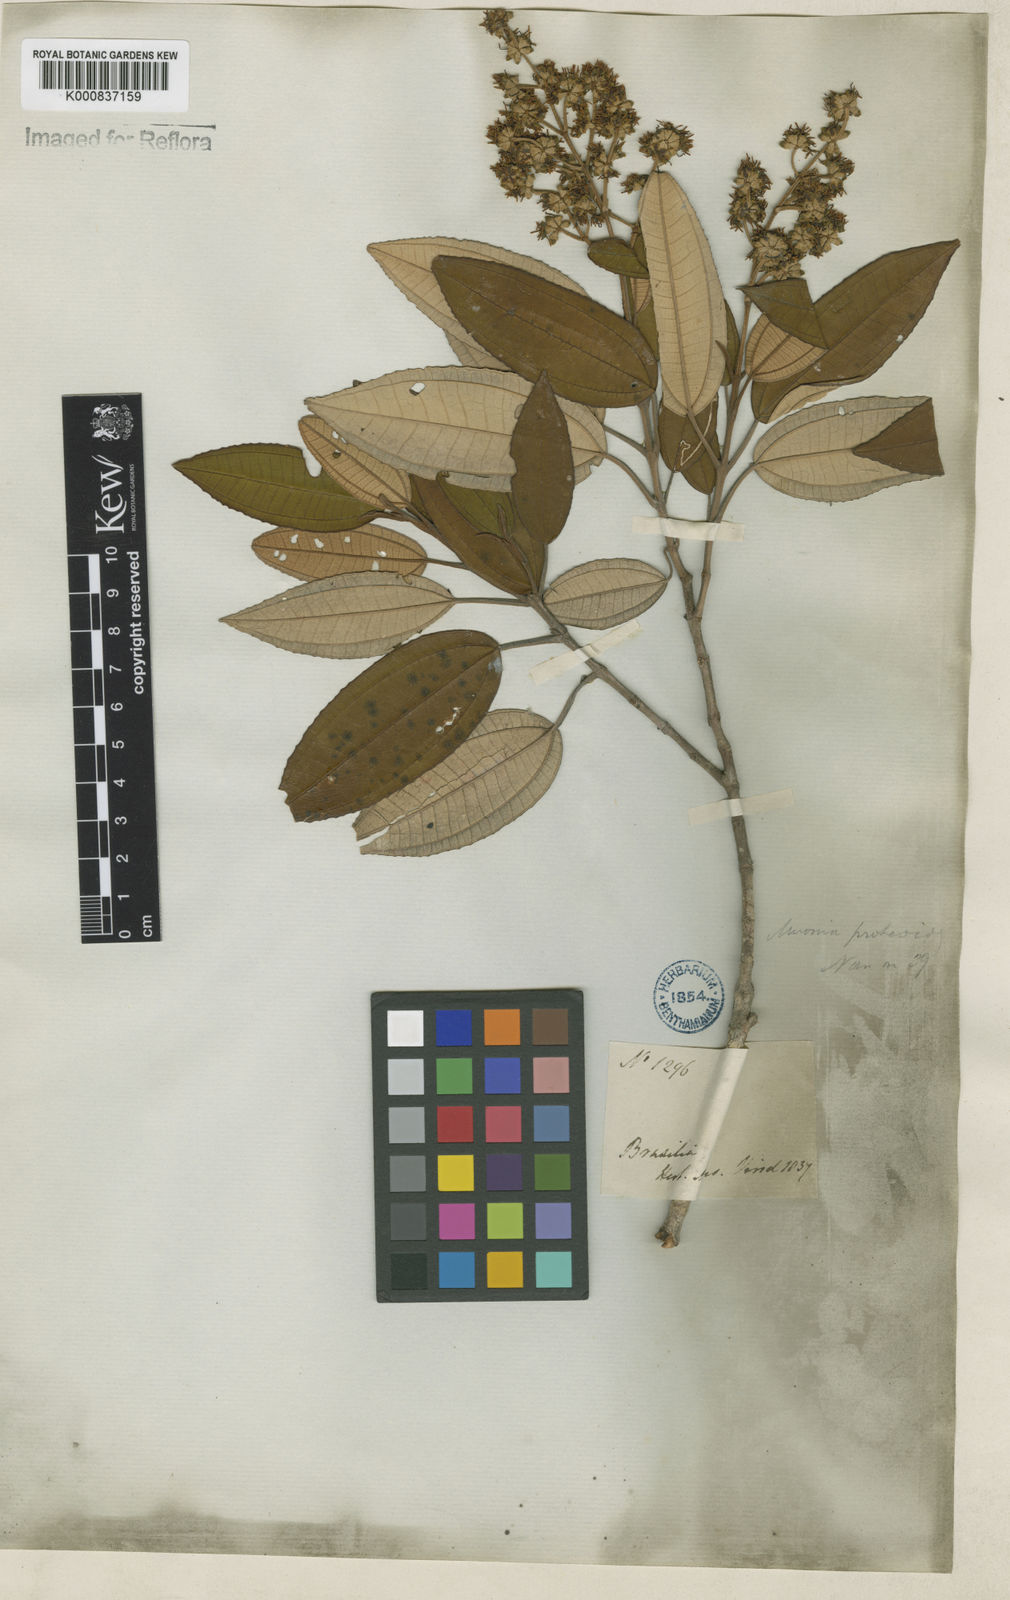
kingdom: Plantae
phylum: Tracheophyta
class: Magnoliopsida
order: Myrtales
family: Melastomataceae
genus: Miconia
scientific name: Miconia cinerascens
